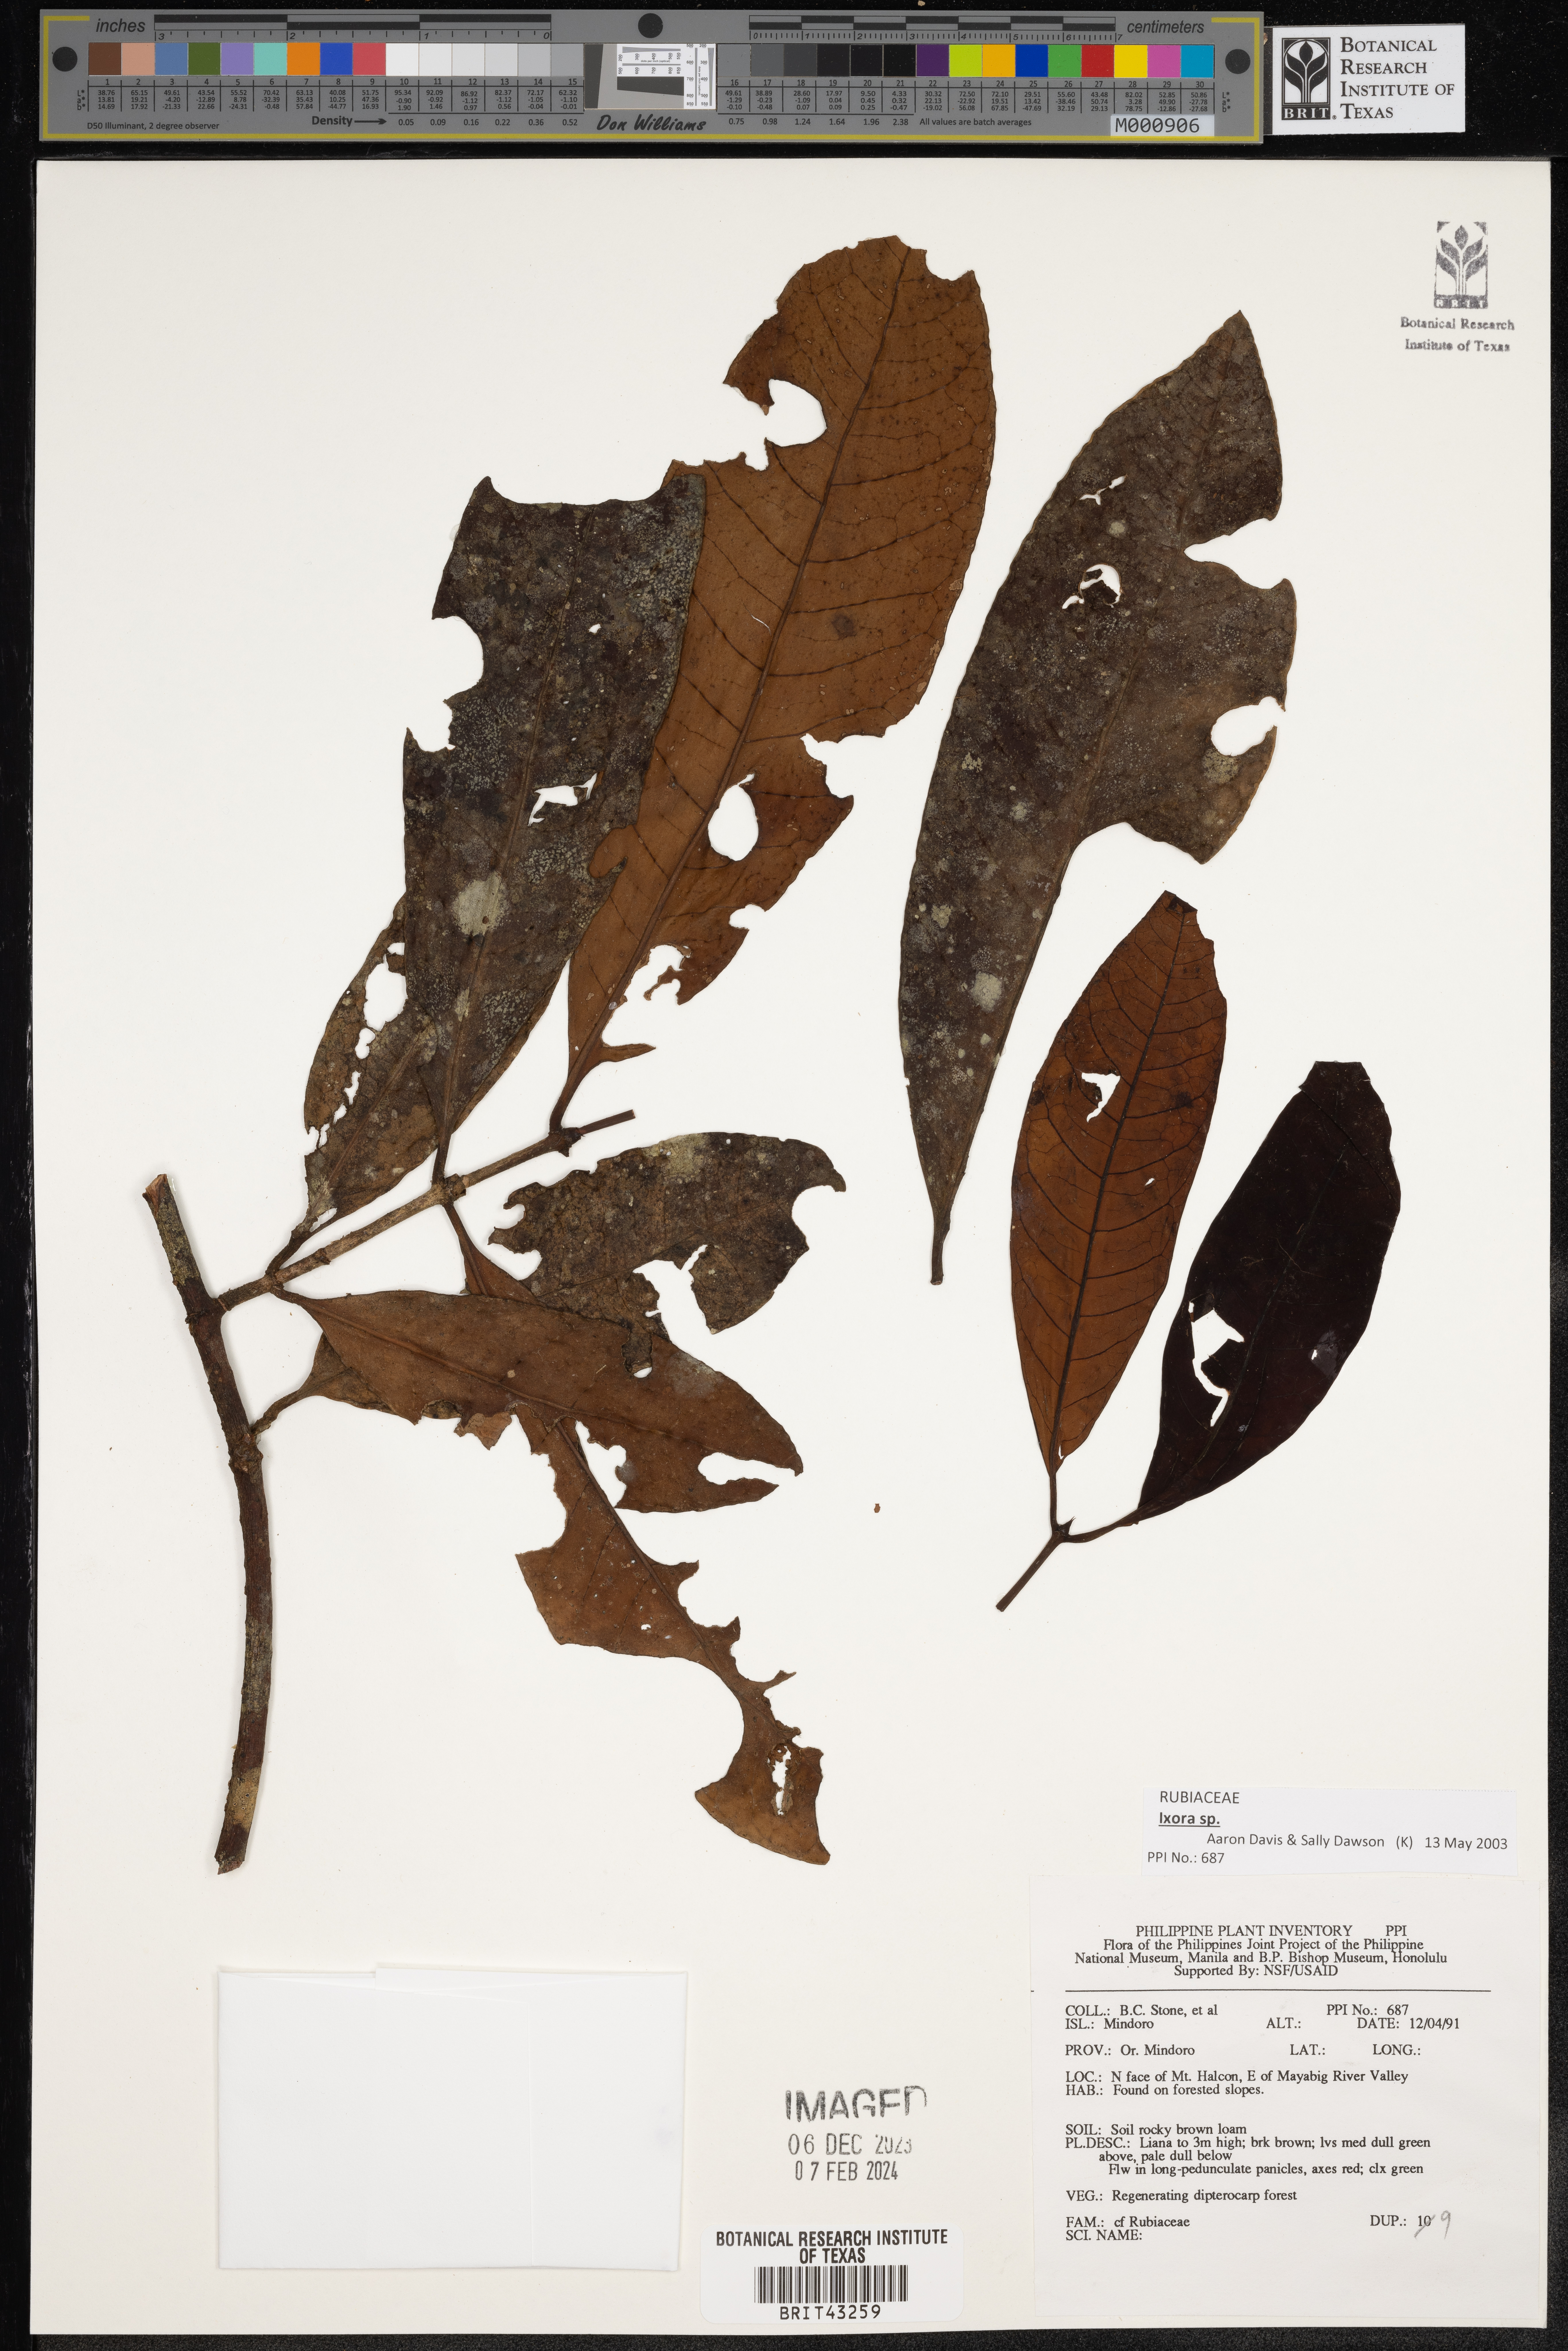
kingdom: Plantae
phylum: Tracheophyta
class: Magnoliopsida
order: Gentianales
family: Rubiaceae
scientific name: Rubiaceae
